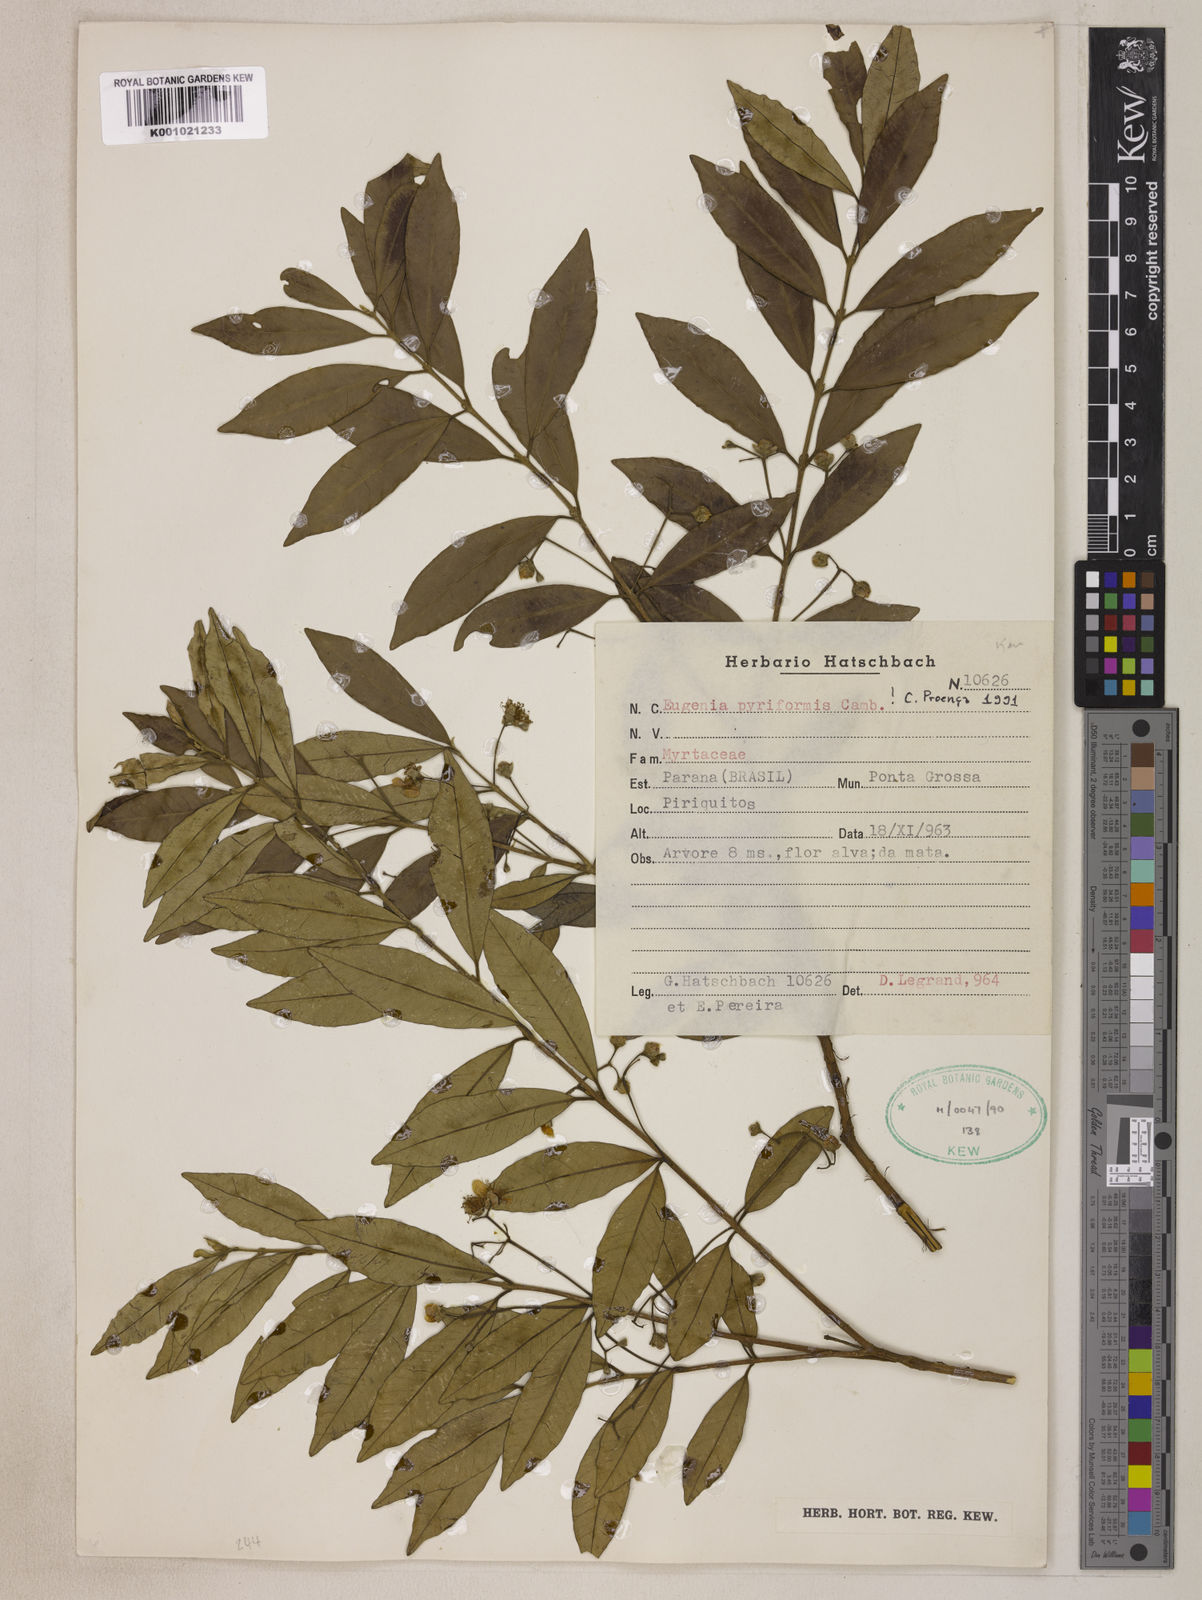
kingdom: Plantae
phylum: Tracheophyta
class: Magnoliopsida
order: Myrtales
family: Myrtaceae
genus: Eugenia
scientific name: Eugenia pyriformis
